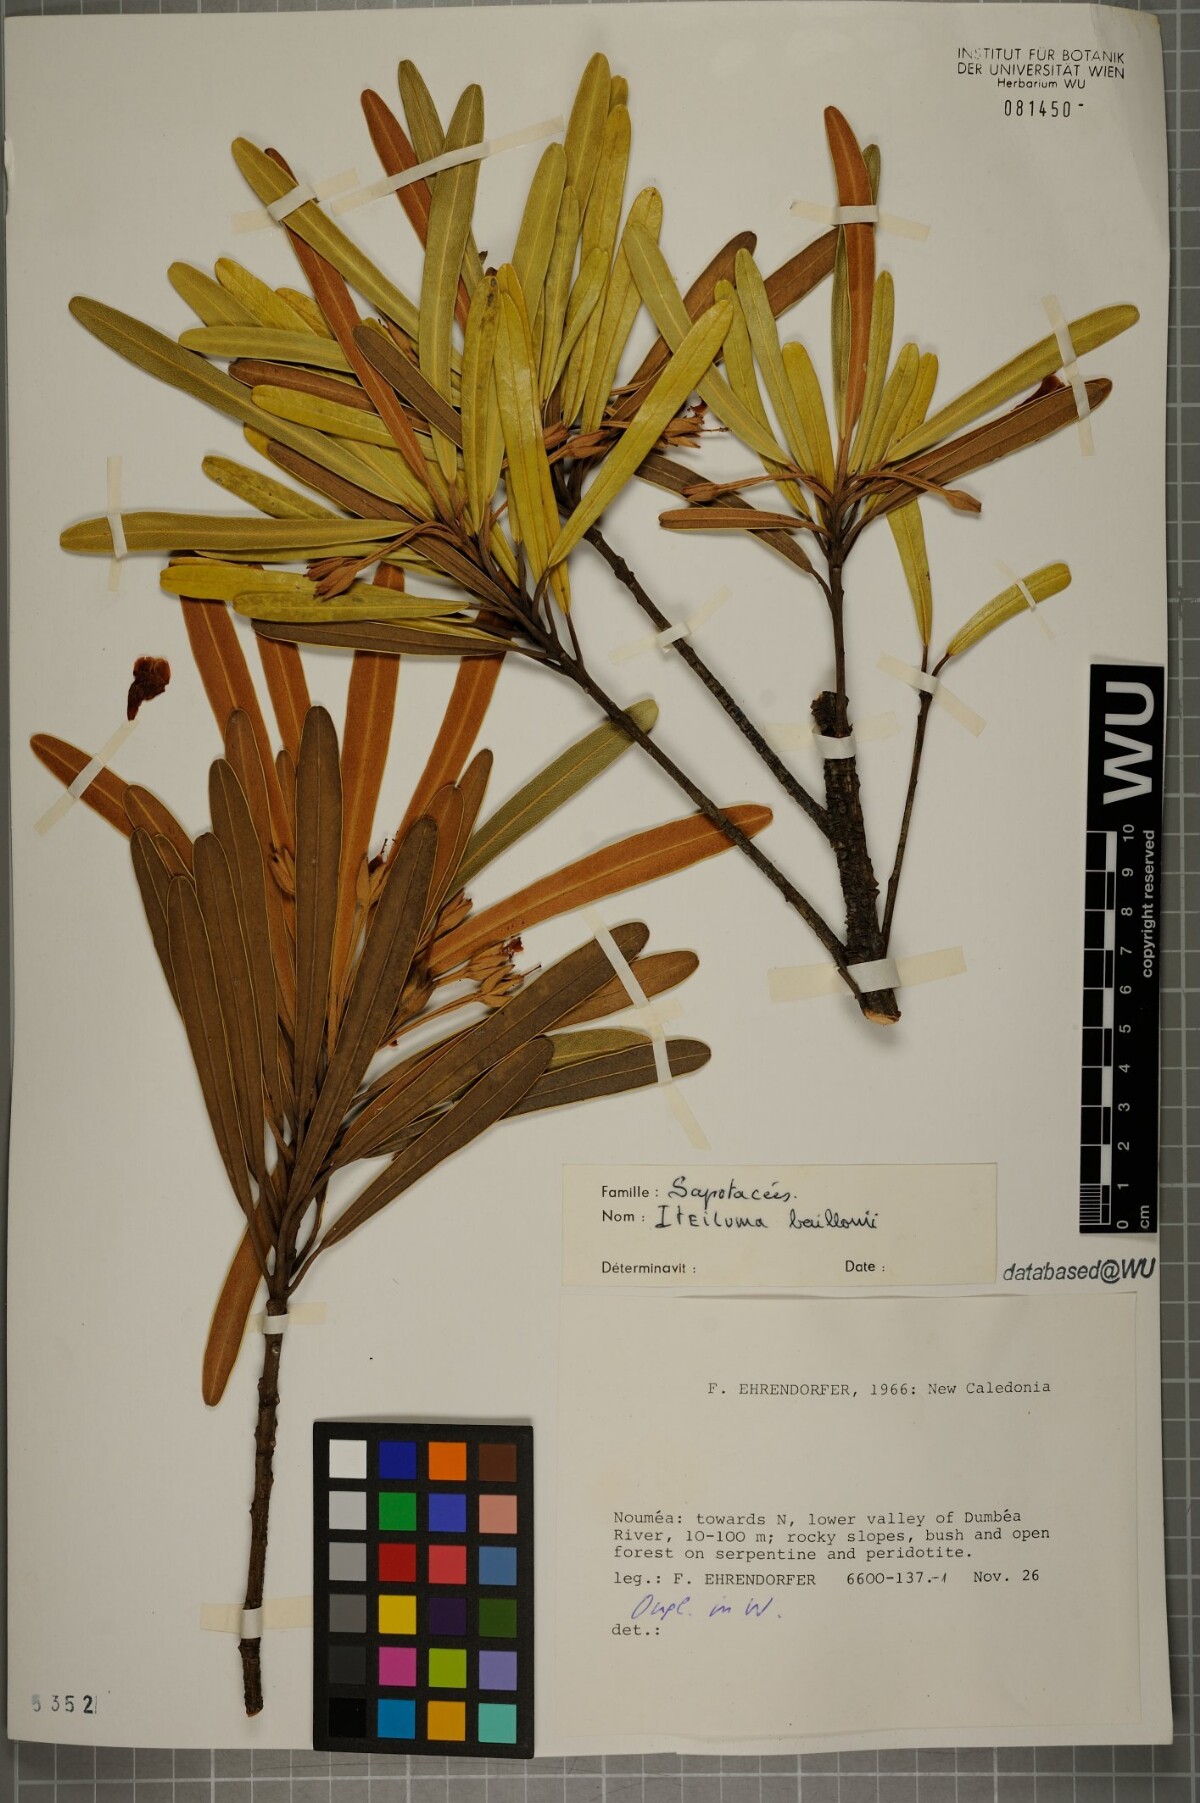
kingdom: Plantae
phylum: Tracheophyta
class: Magnoliopsida
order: Ericales
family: Sapotaceae
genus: Planchonella
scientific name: Planchonella baillonii
